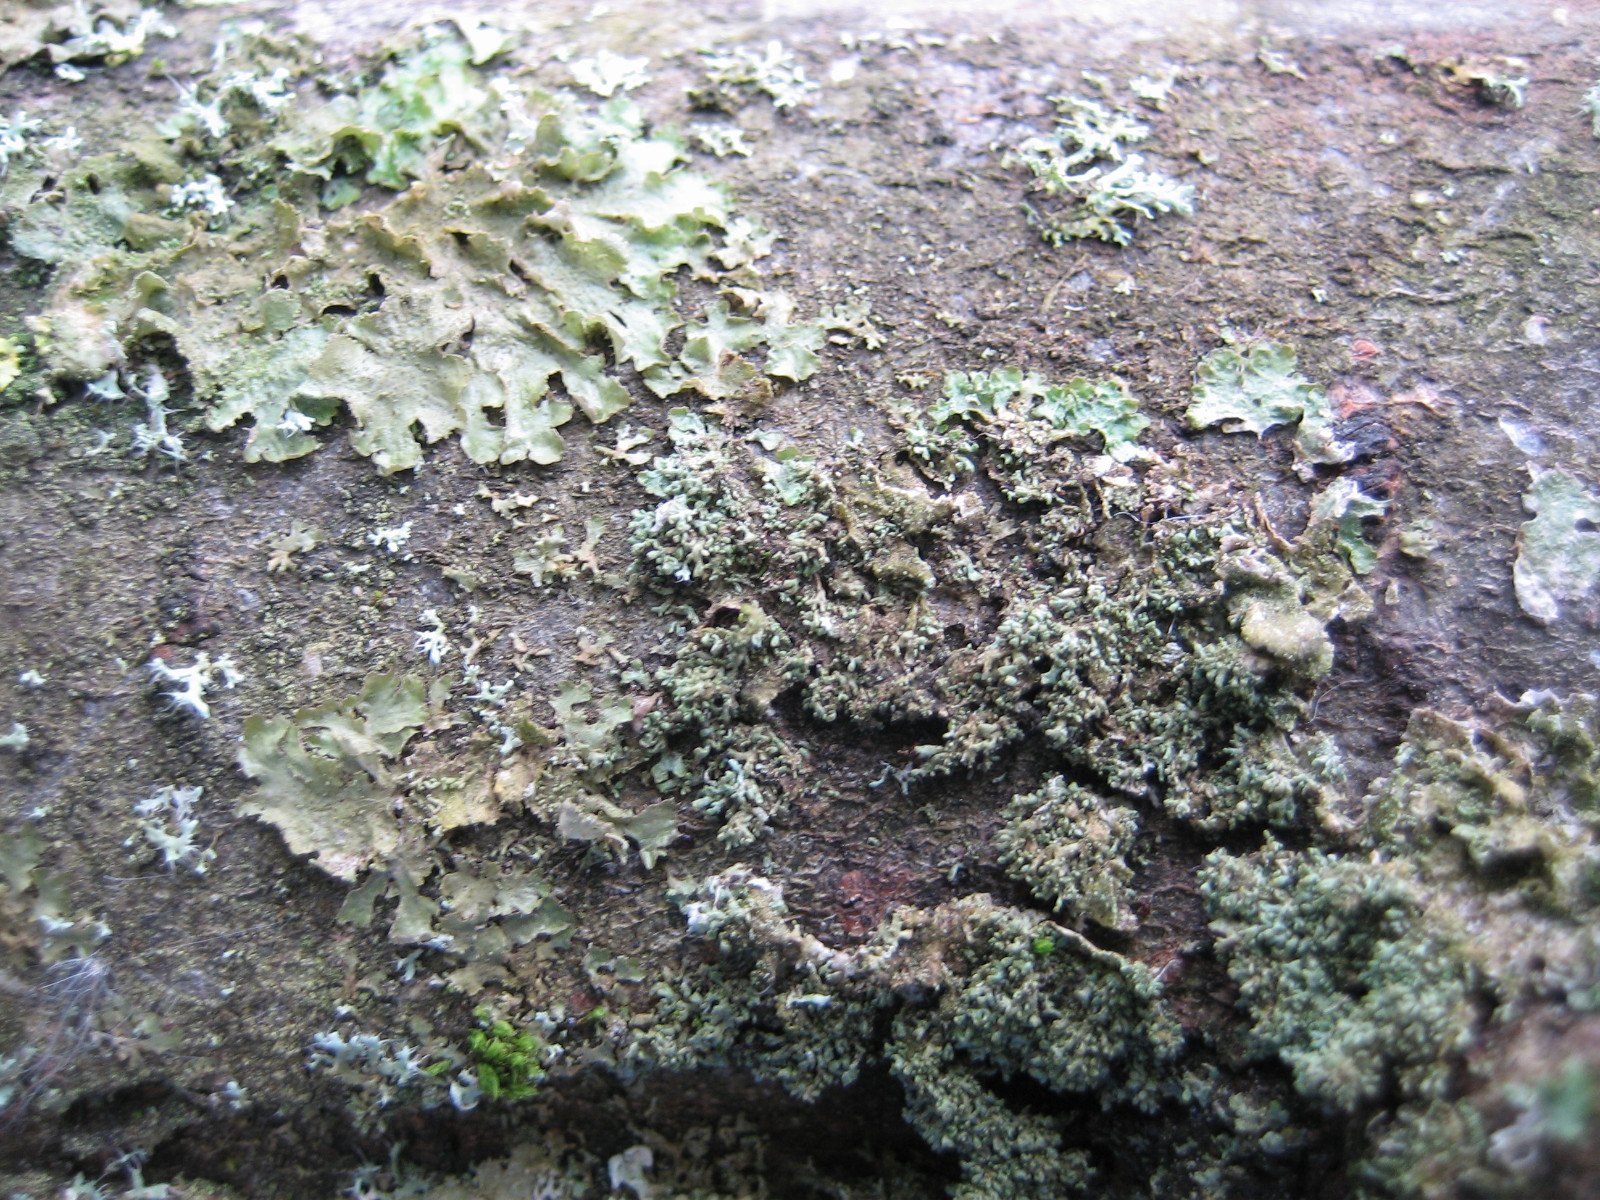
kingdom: Fungi
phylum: Ascomycota
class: Lecanoromycetes
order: Lecanorales
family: Parmeliaceae
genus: Melanohalea
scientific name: Melanohalea exasperatula
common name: kølle-skållav
